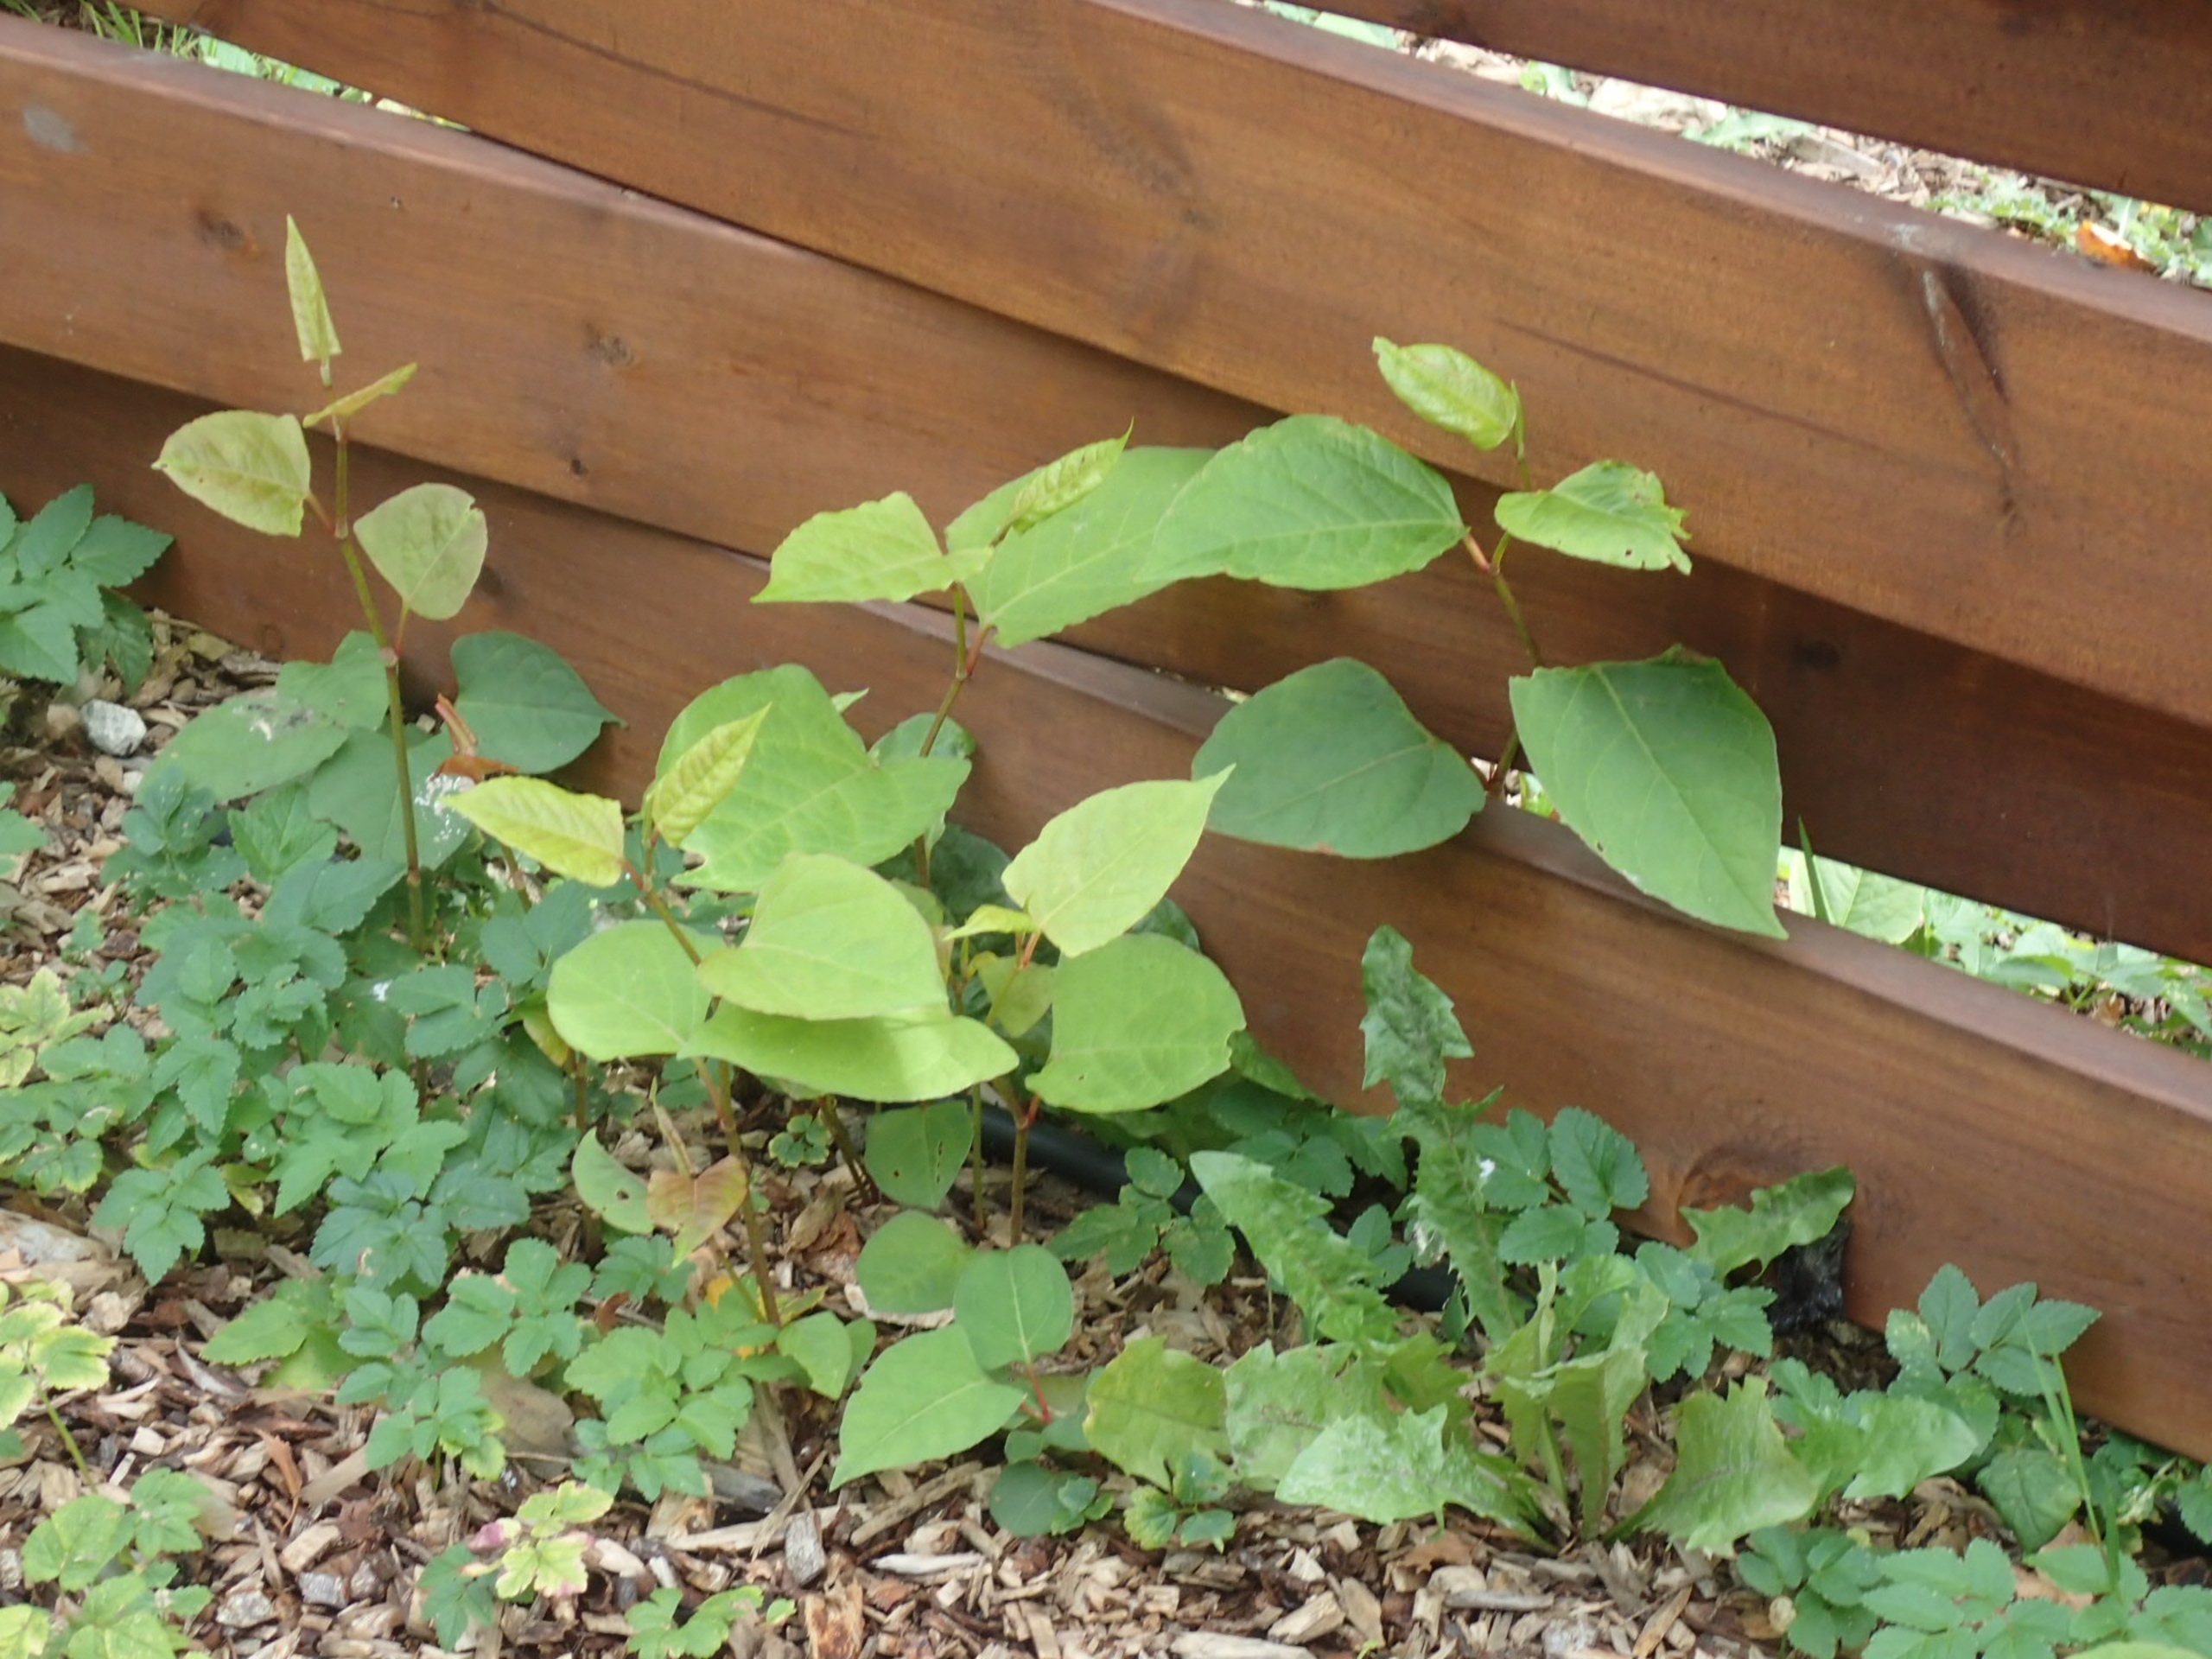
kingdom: Plantae
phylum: Tracheophyta
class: Magnoliopsida
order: Caryophyllales
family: Polygonaceae
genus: Reynoutria
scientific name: Reynoutria japonica
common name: Japan-pileurt
